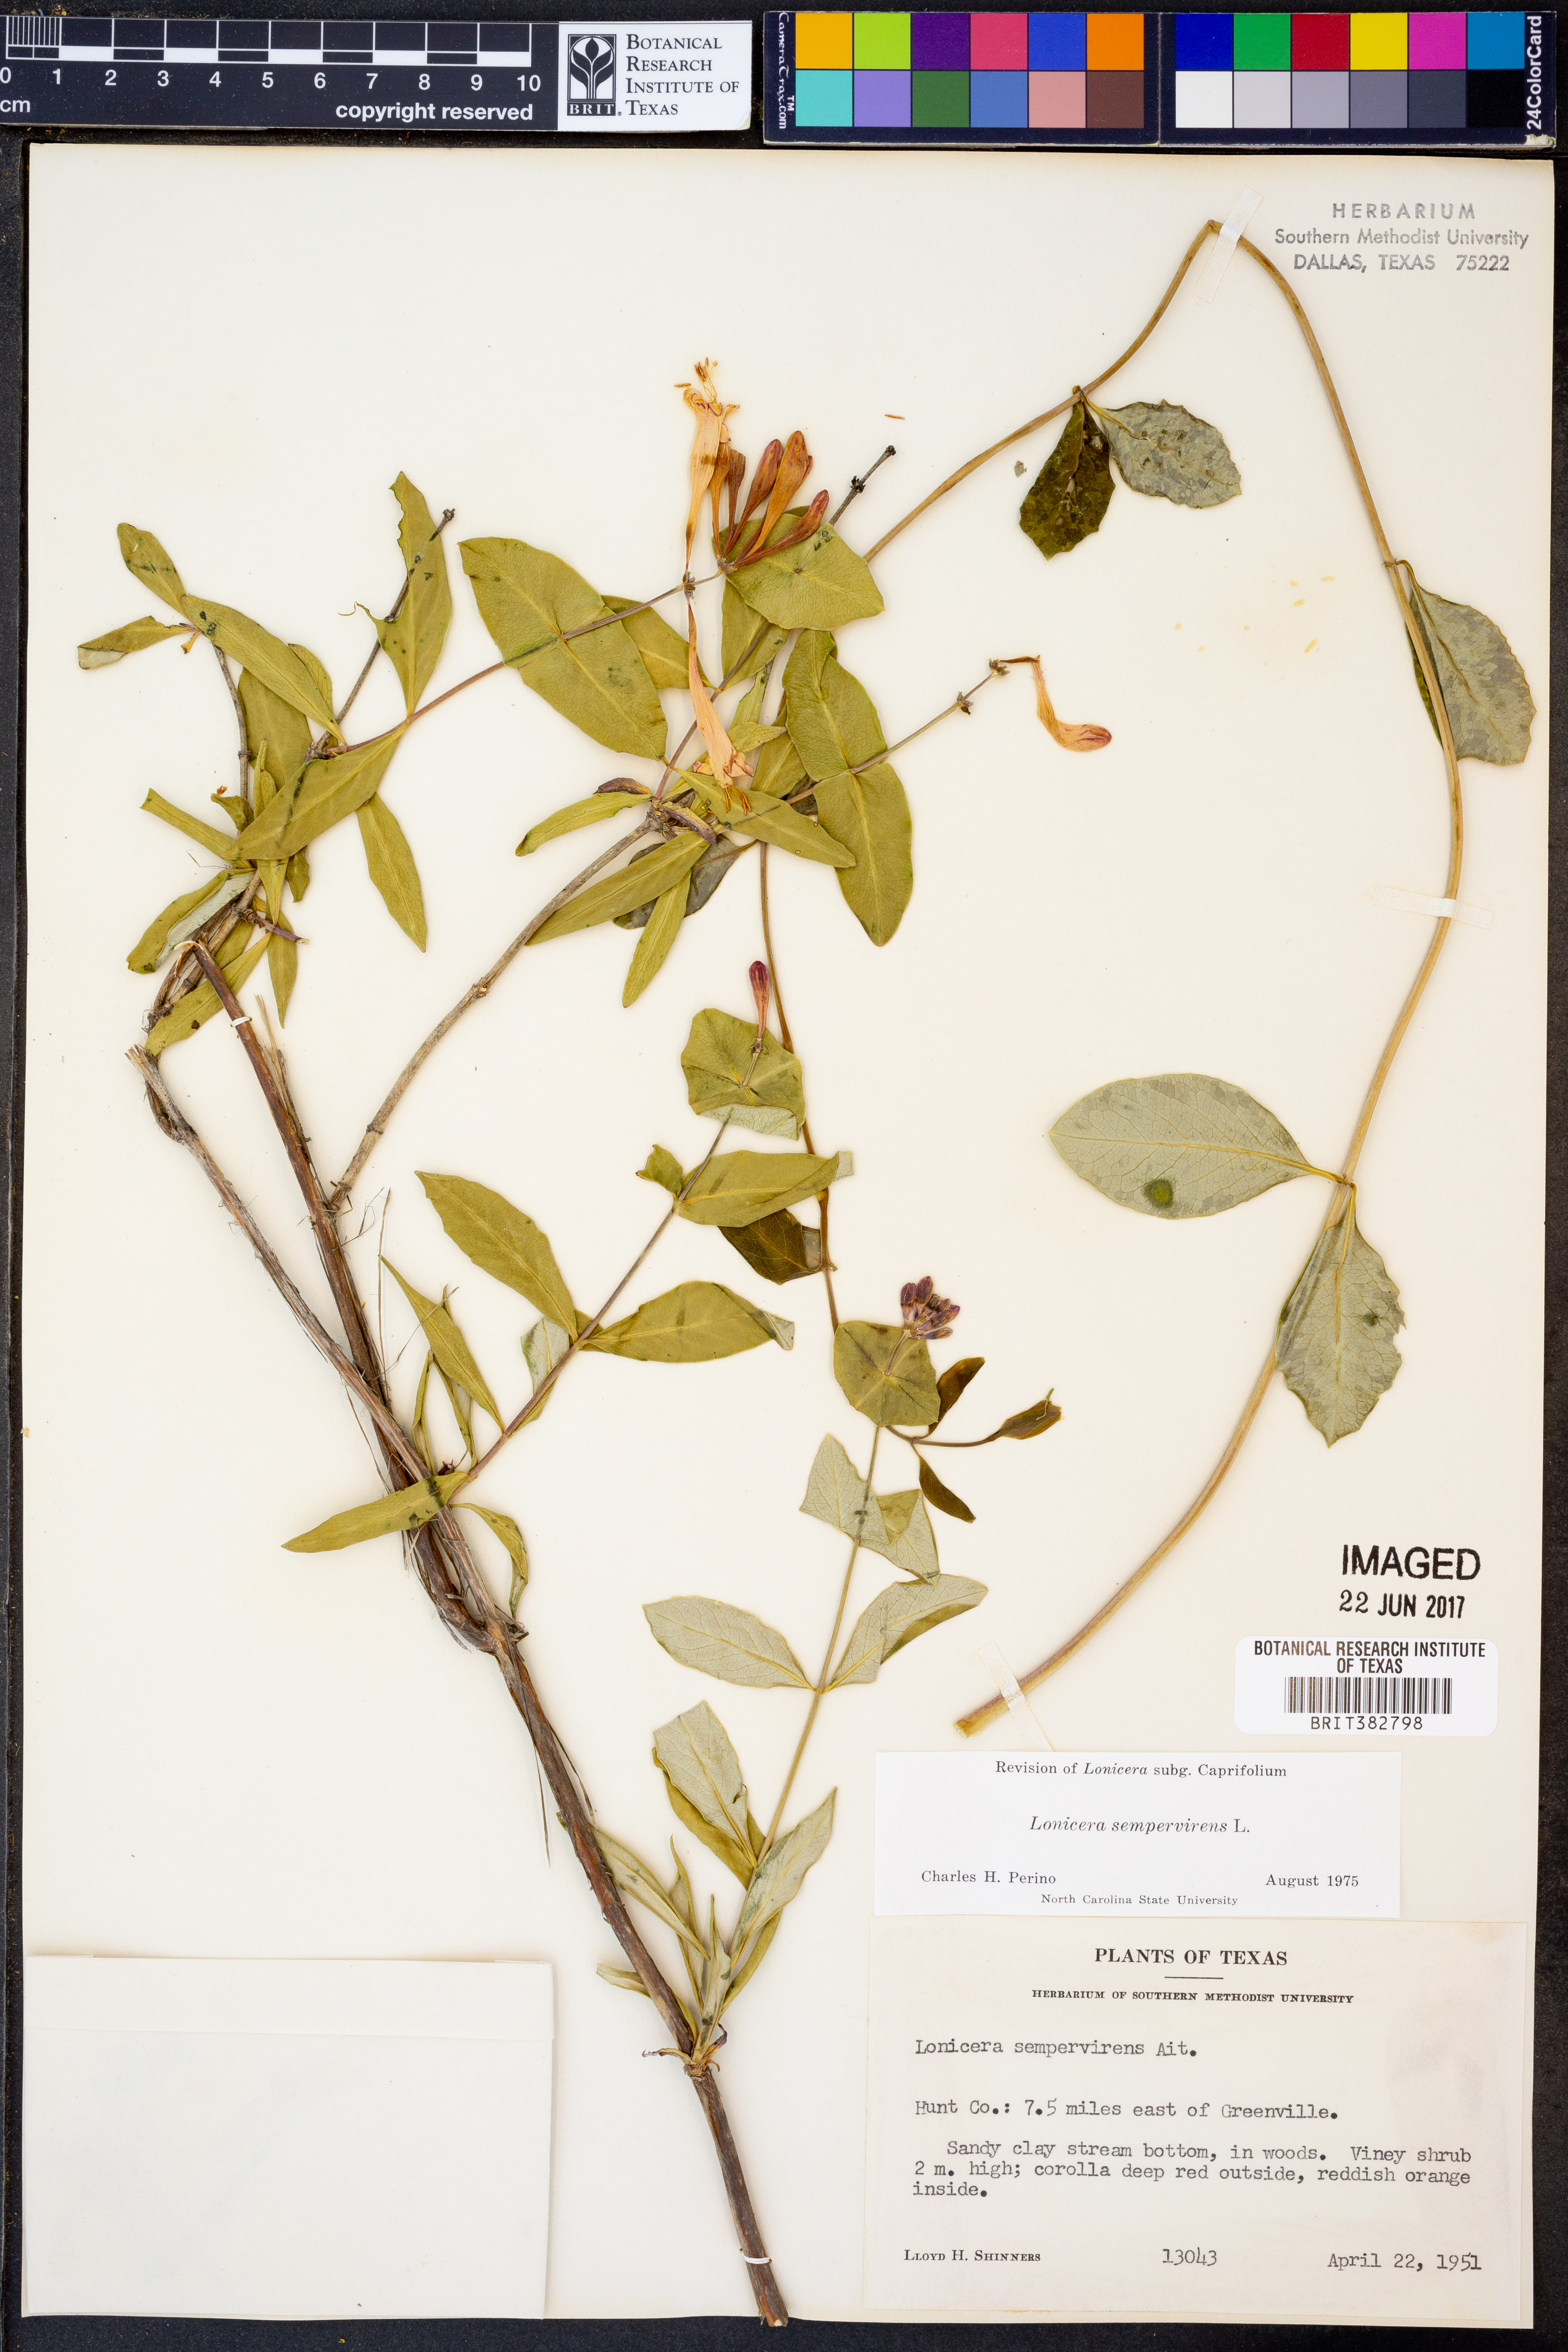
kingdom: Plantae
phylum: Tracheophyta
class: Magnoliopsida
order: Dipsacales
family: Caprifoliaceae
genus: Lonicera
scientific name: Lonicera sempervirens
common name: Coral honeysuckle
